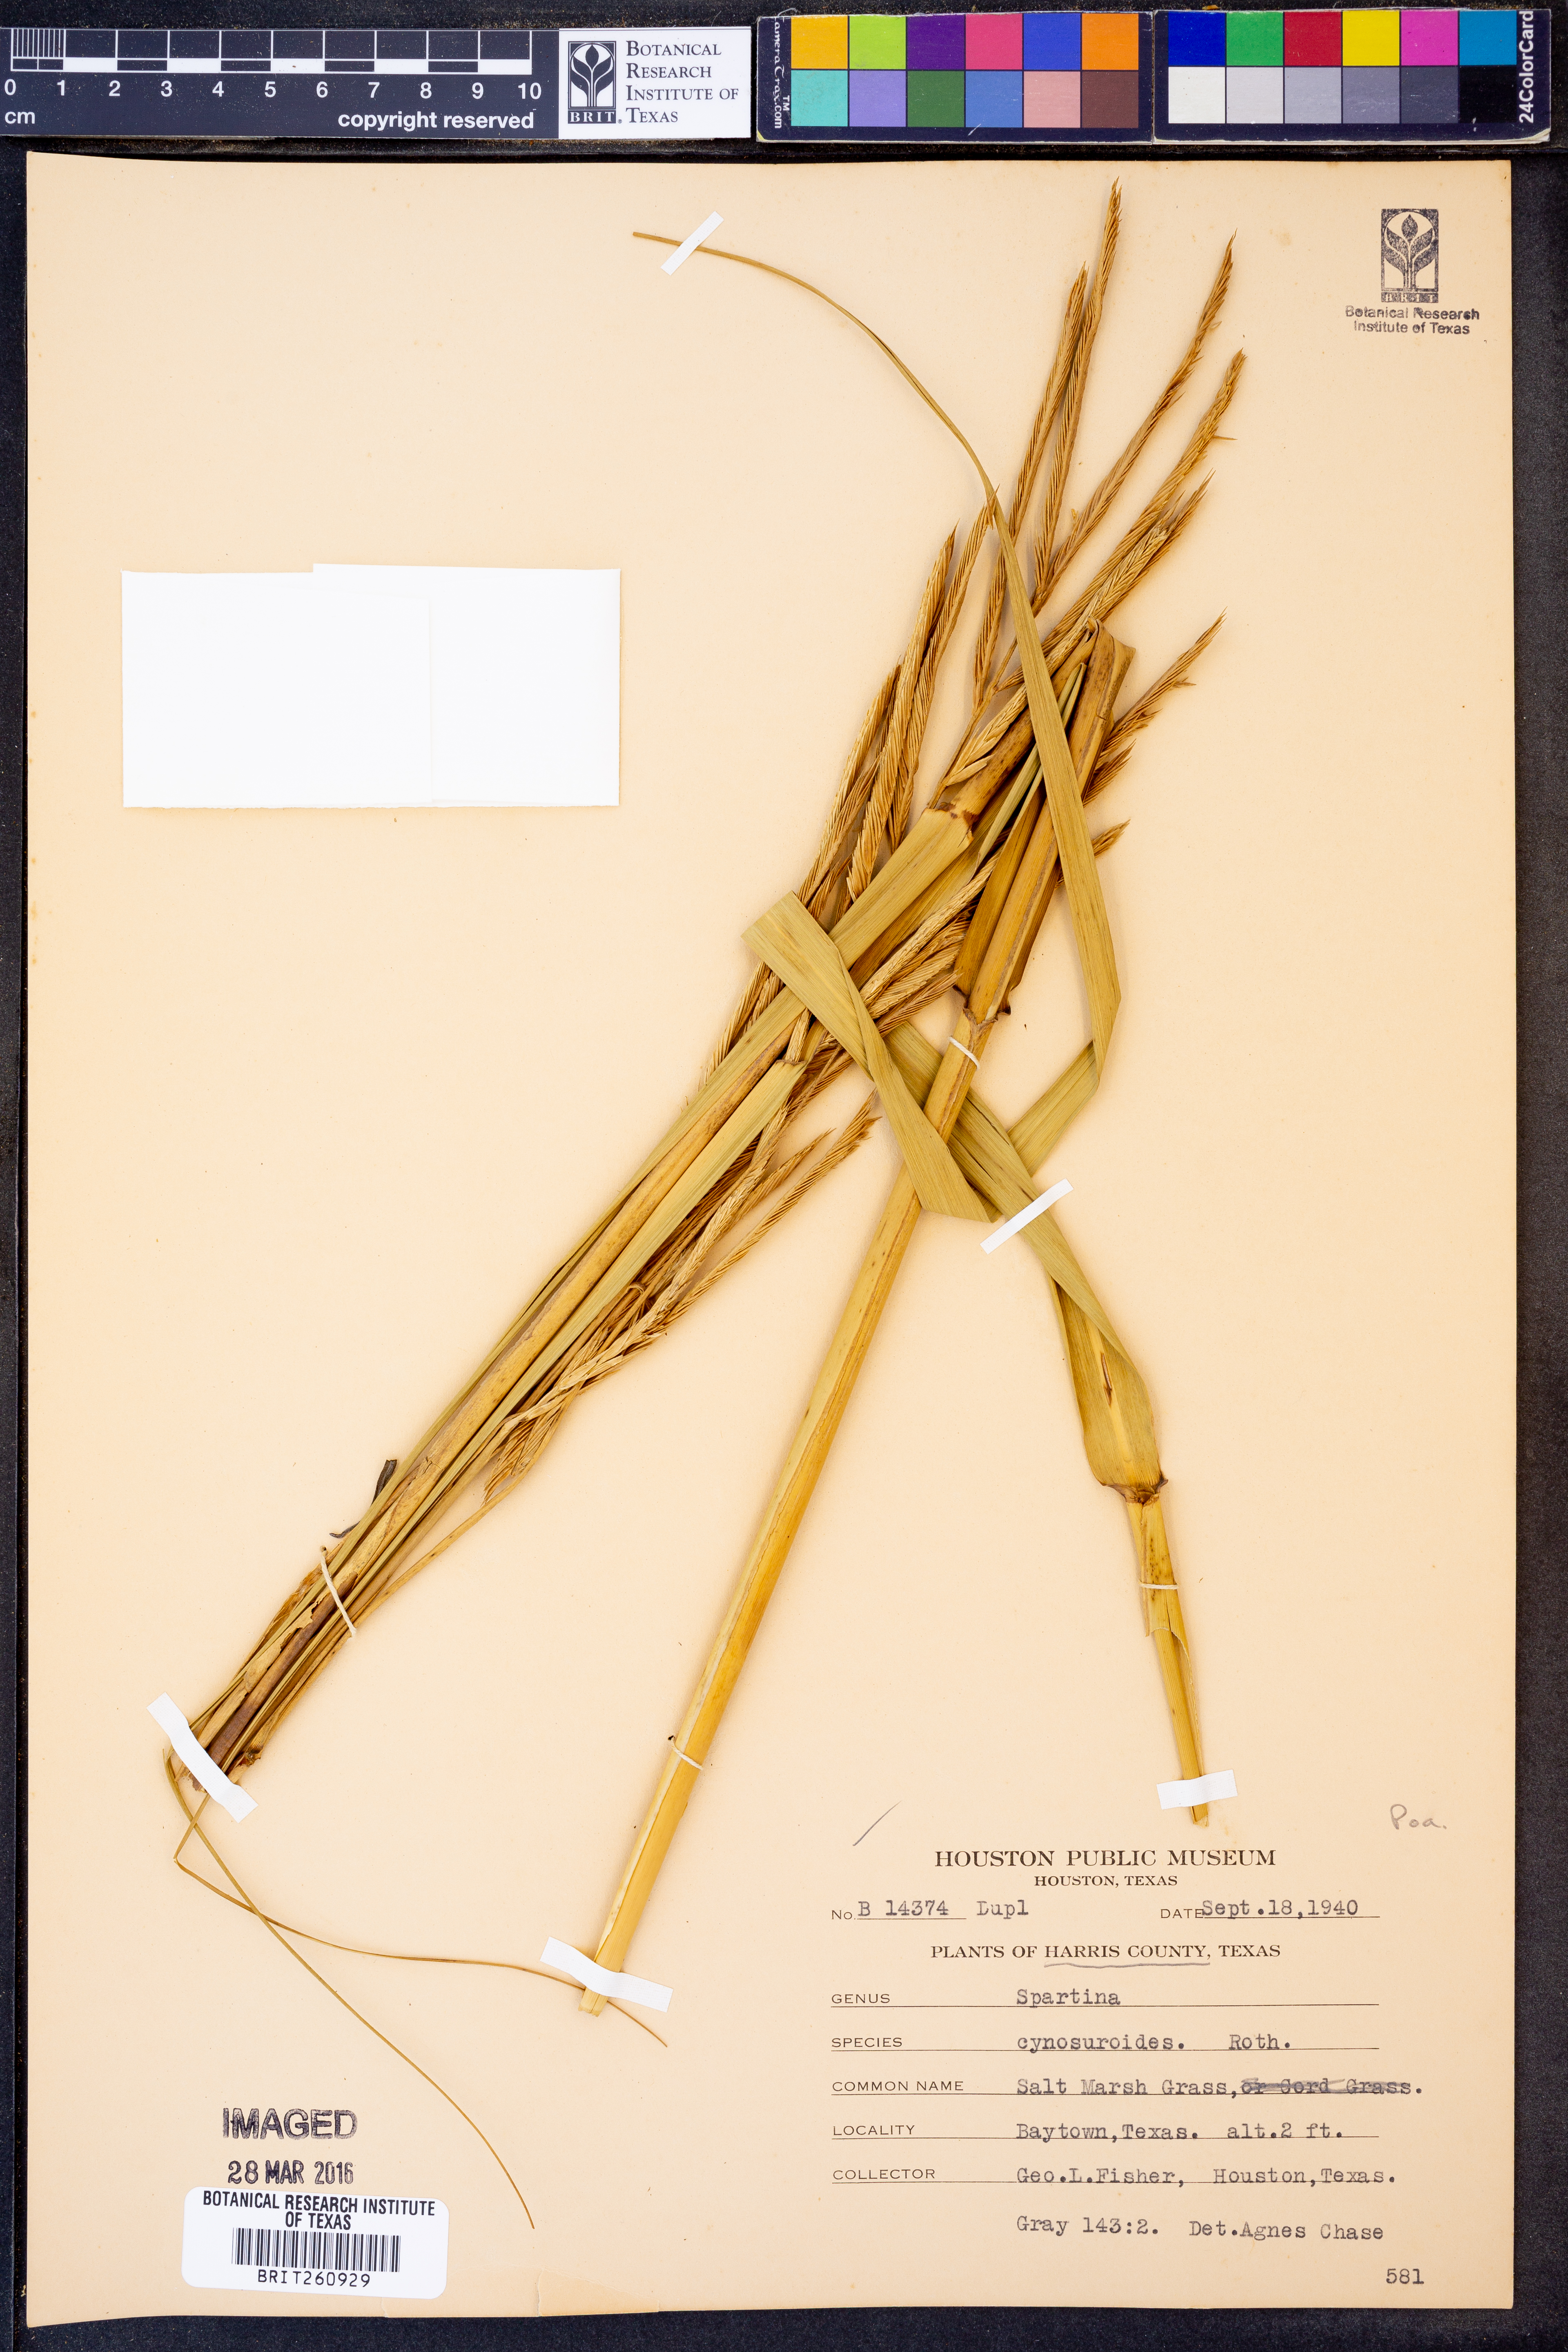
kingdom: Plantae
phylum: Tracheophyta
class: Liliopsida
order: Poales
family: Poaceae
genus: Sporobolus
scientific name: Sporobolus cynosuroides
